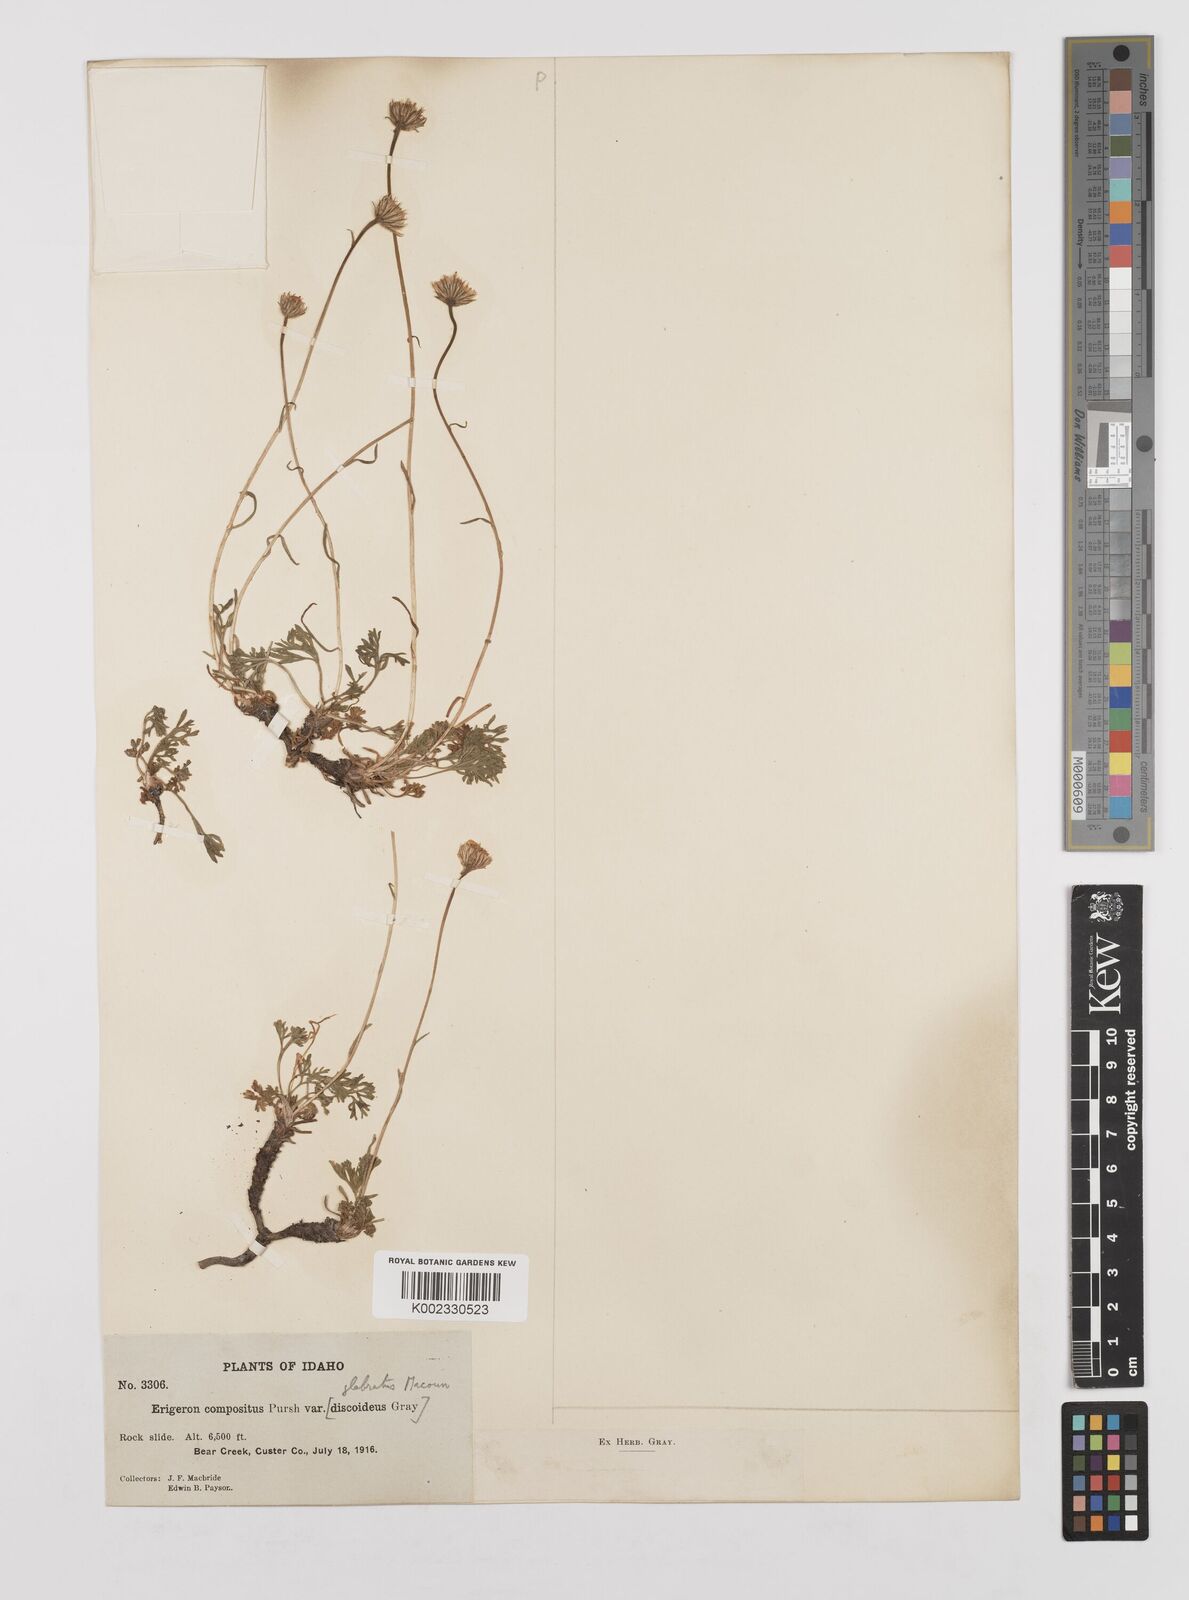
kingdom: Plantae
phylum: Tracheophyta
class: Magnoliopsida
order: Asterales
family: Asteraceae
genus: Erigeron
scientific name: Erigeron compositus
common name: Dwarf mountain fleabane
